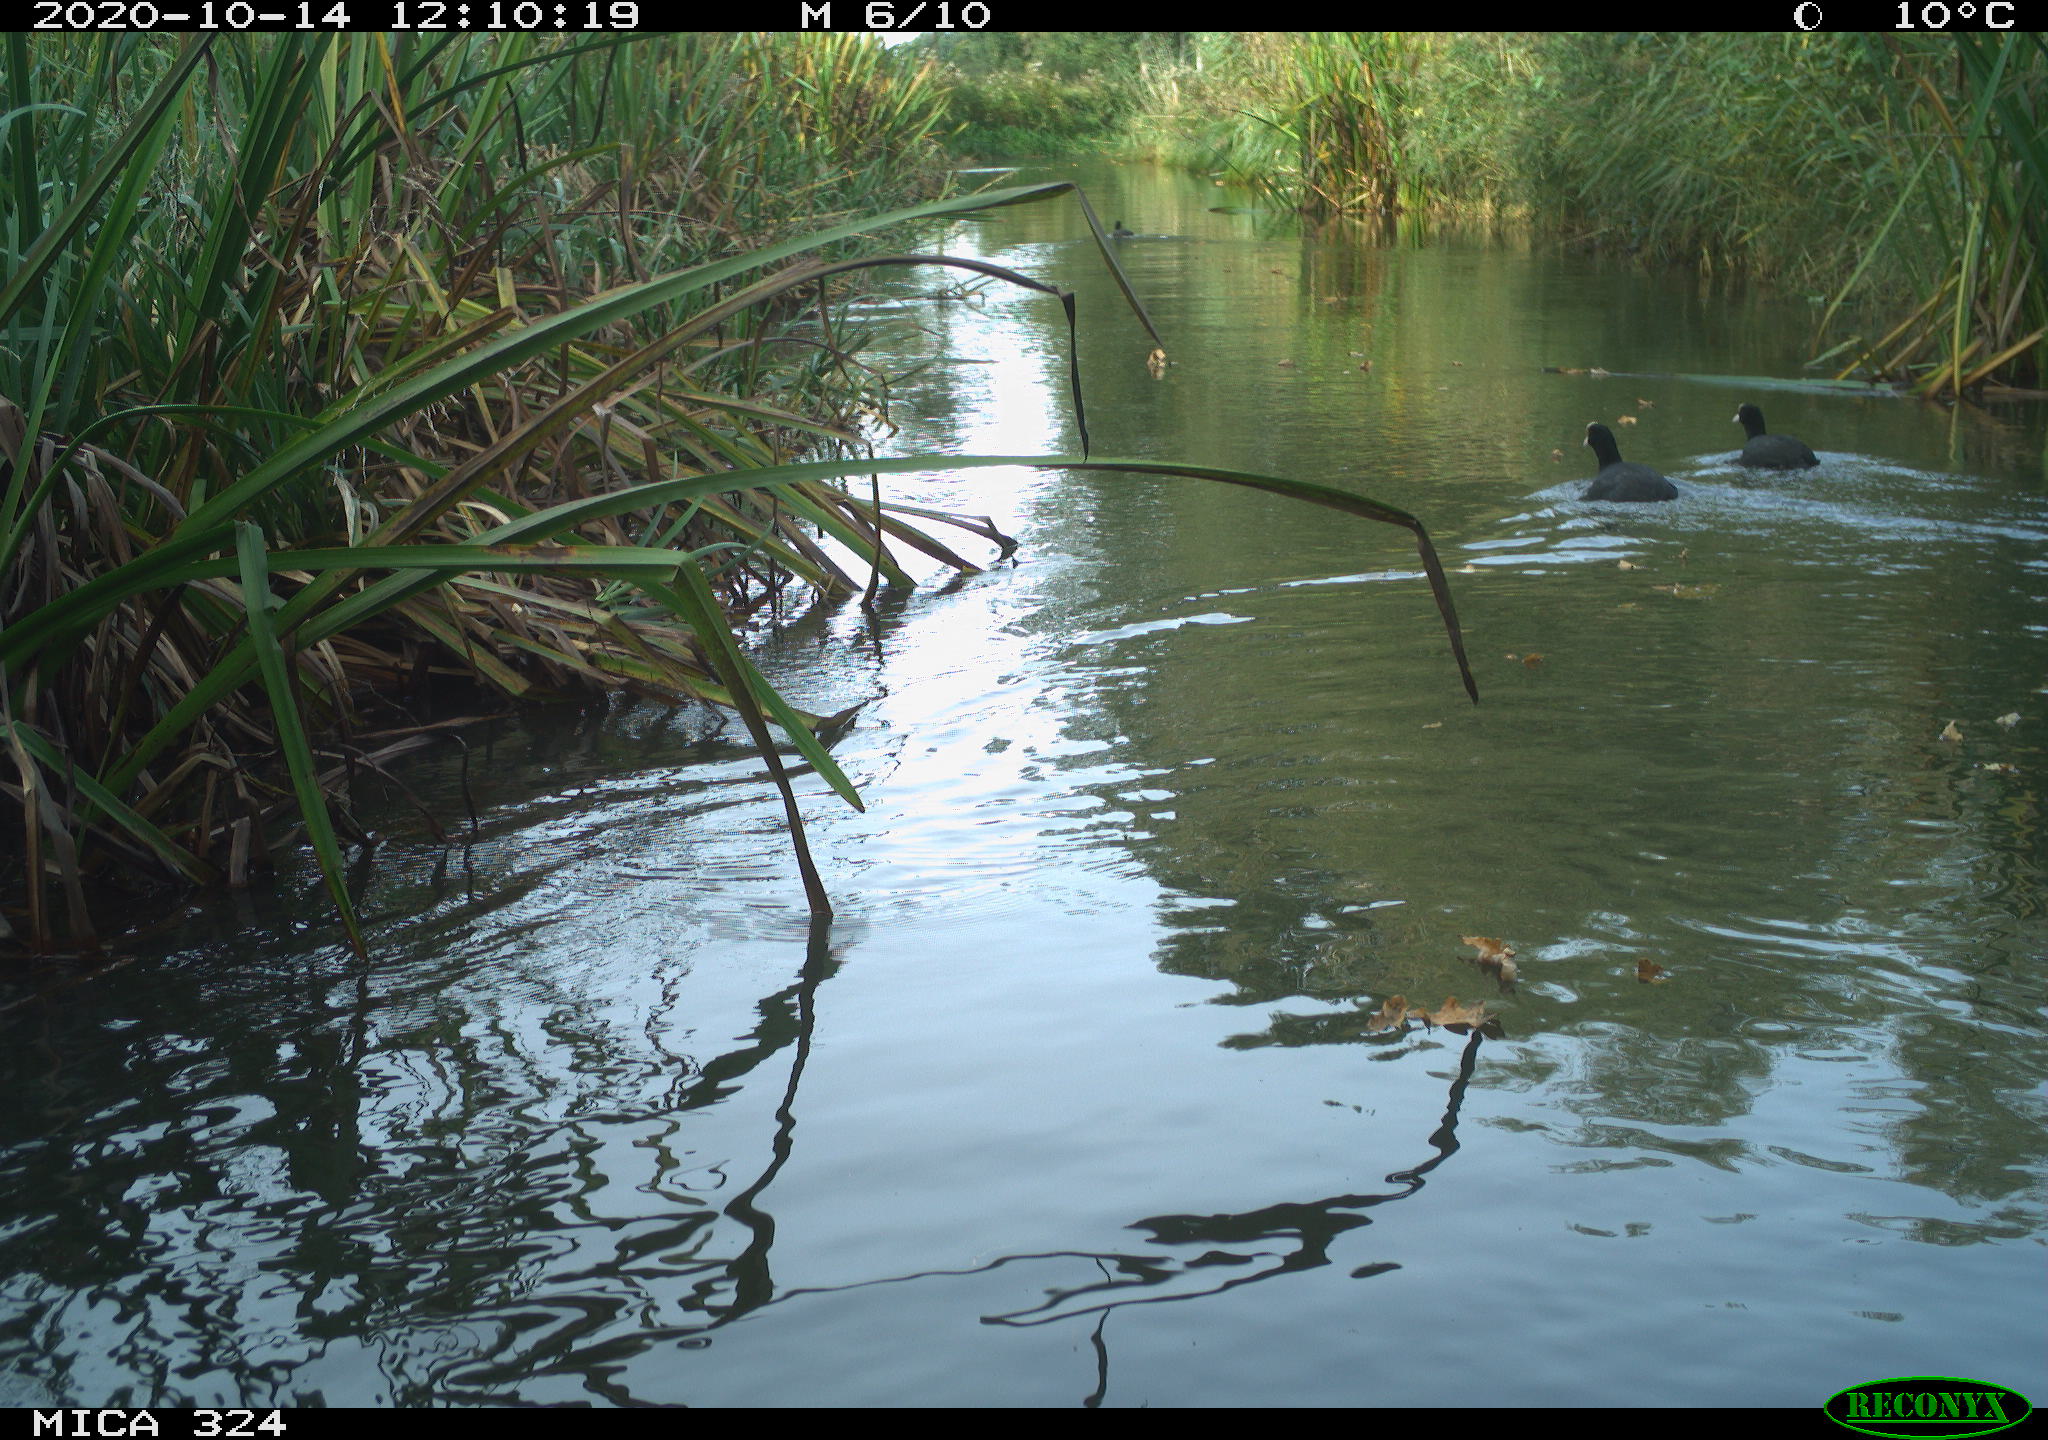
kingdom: Animalia
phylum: Chordata
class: Aves
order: Gruiformes
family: Rallidae
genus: Fulica
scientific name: Fulica atra
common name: Eurasian coot
